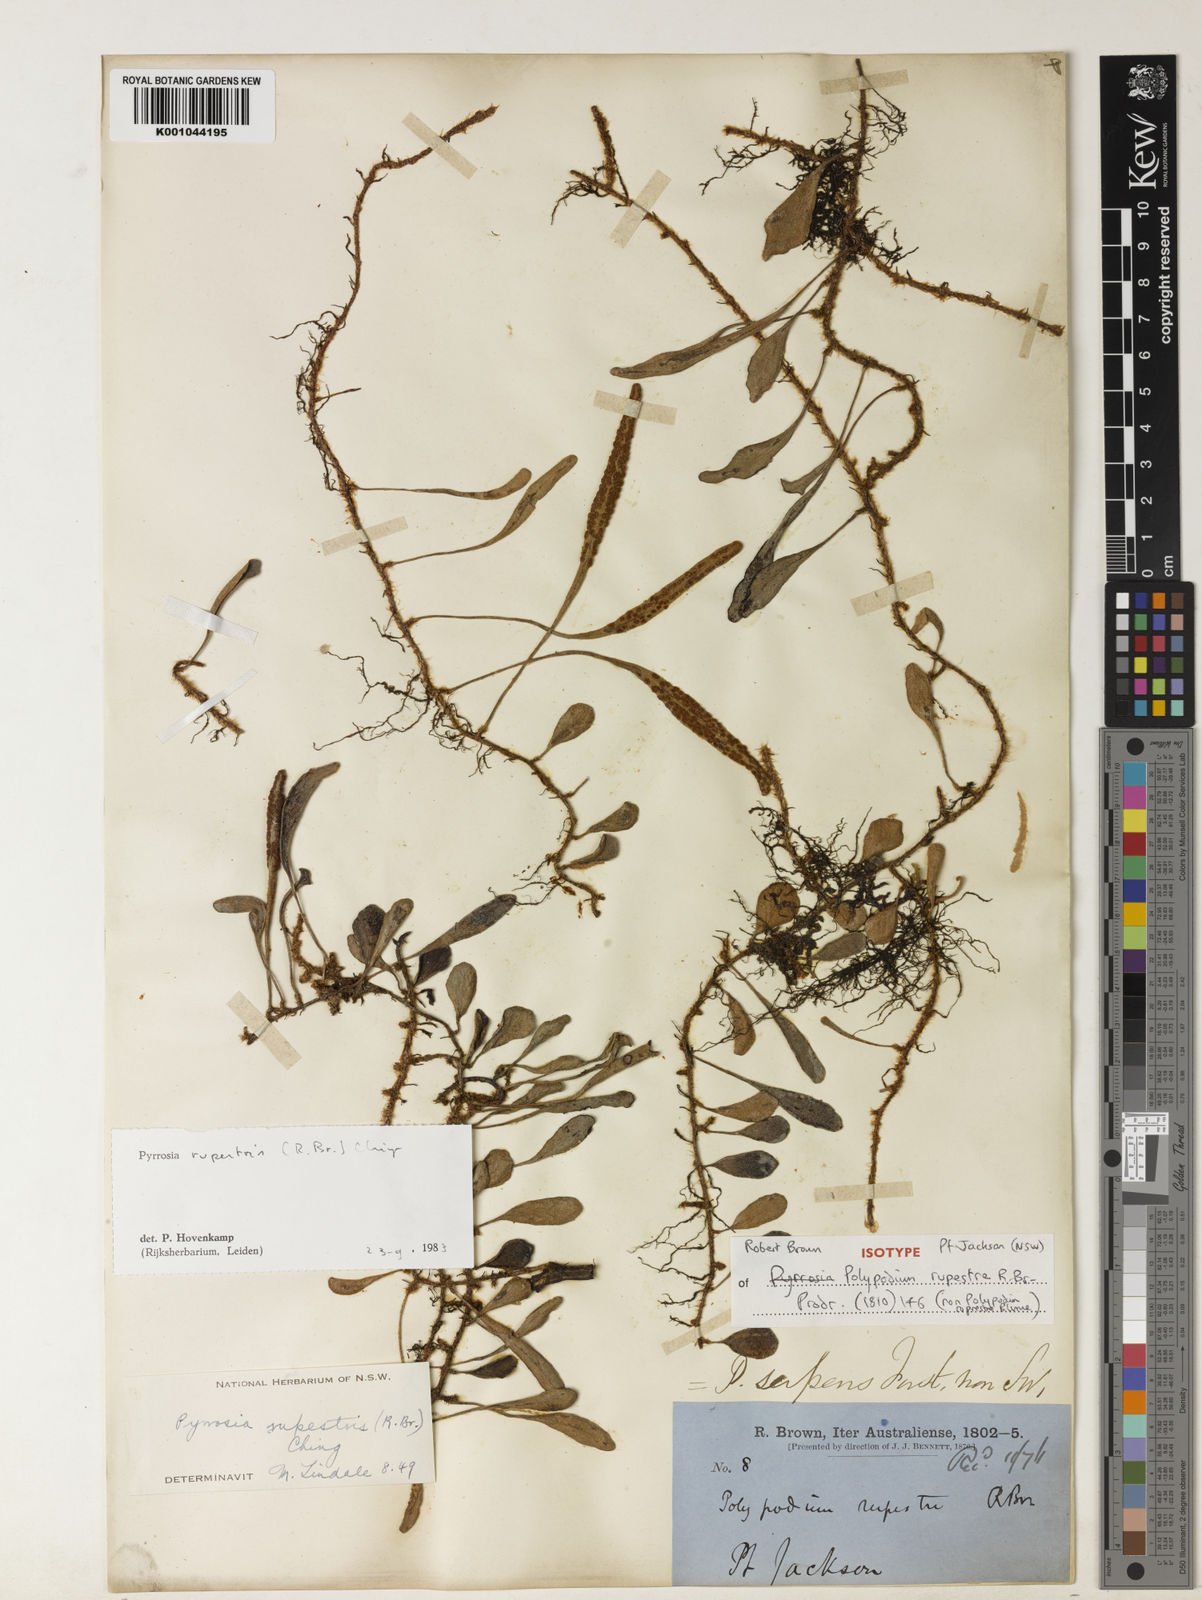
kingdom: Plantae
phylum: Tracheophyta
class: Polypodiopsida
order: Polypodiales
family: Polypodiaceae
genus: Pyrrosia
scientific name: Pyrrosia rupestris
